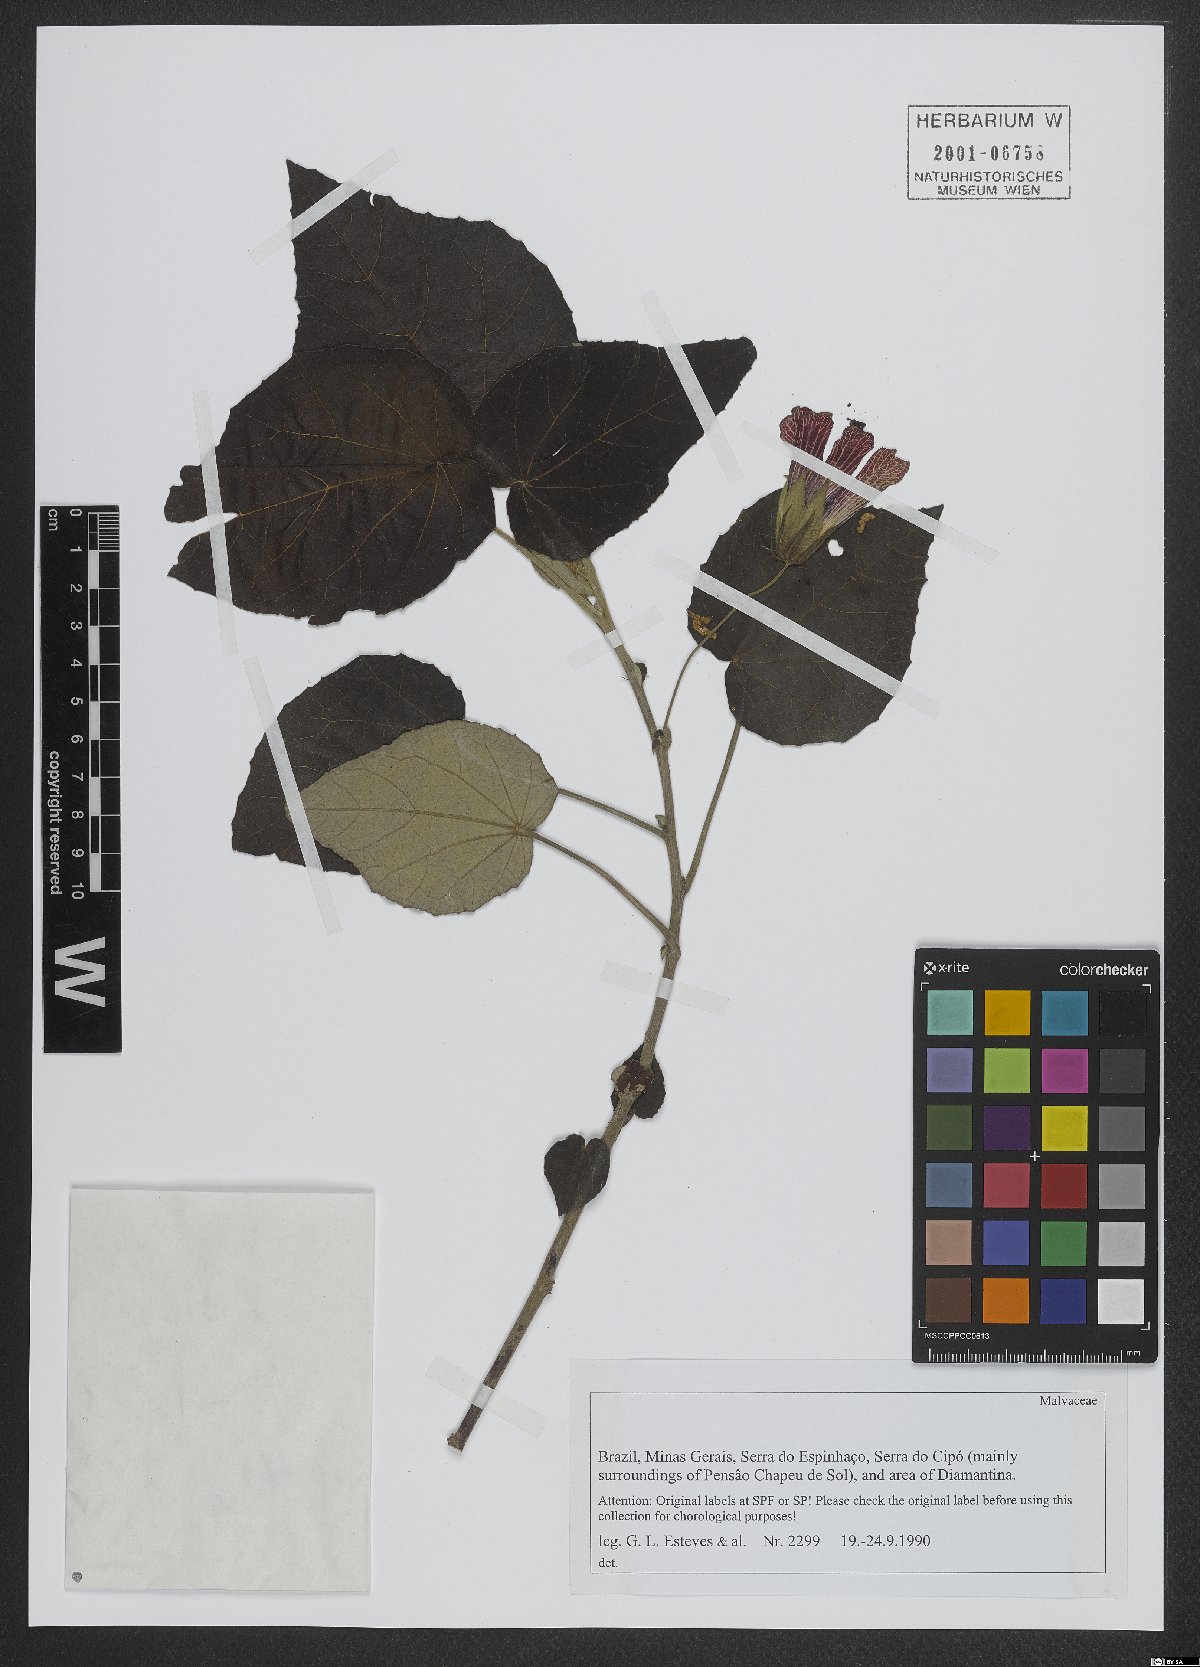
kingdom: Plantae
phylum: Tracheophyta
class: Magnoliopsida
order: Malvales
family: Malvaceae
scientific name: Malvaceae
